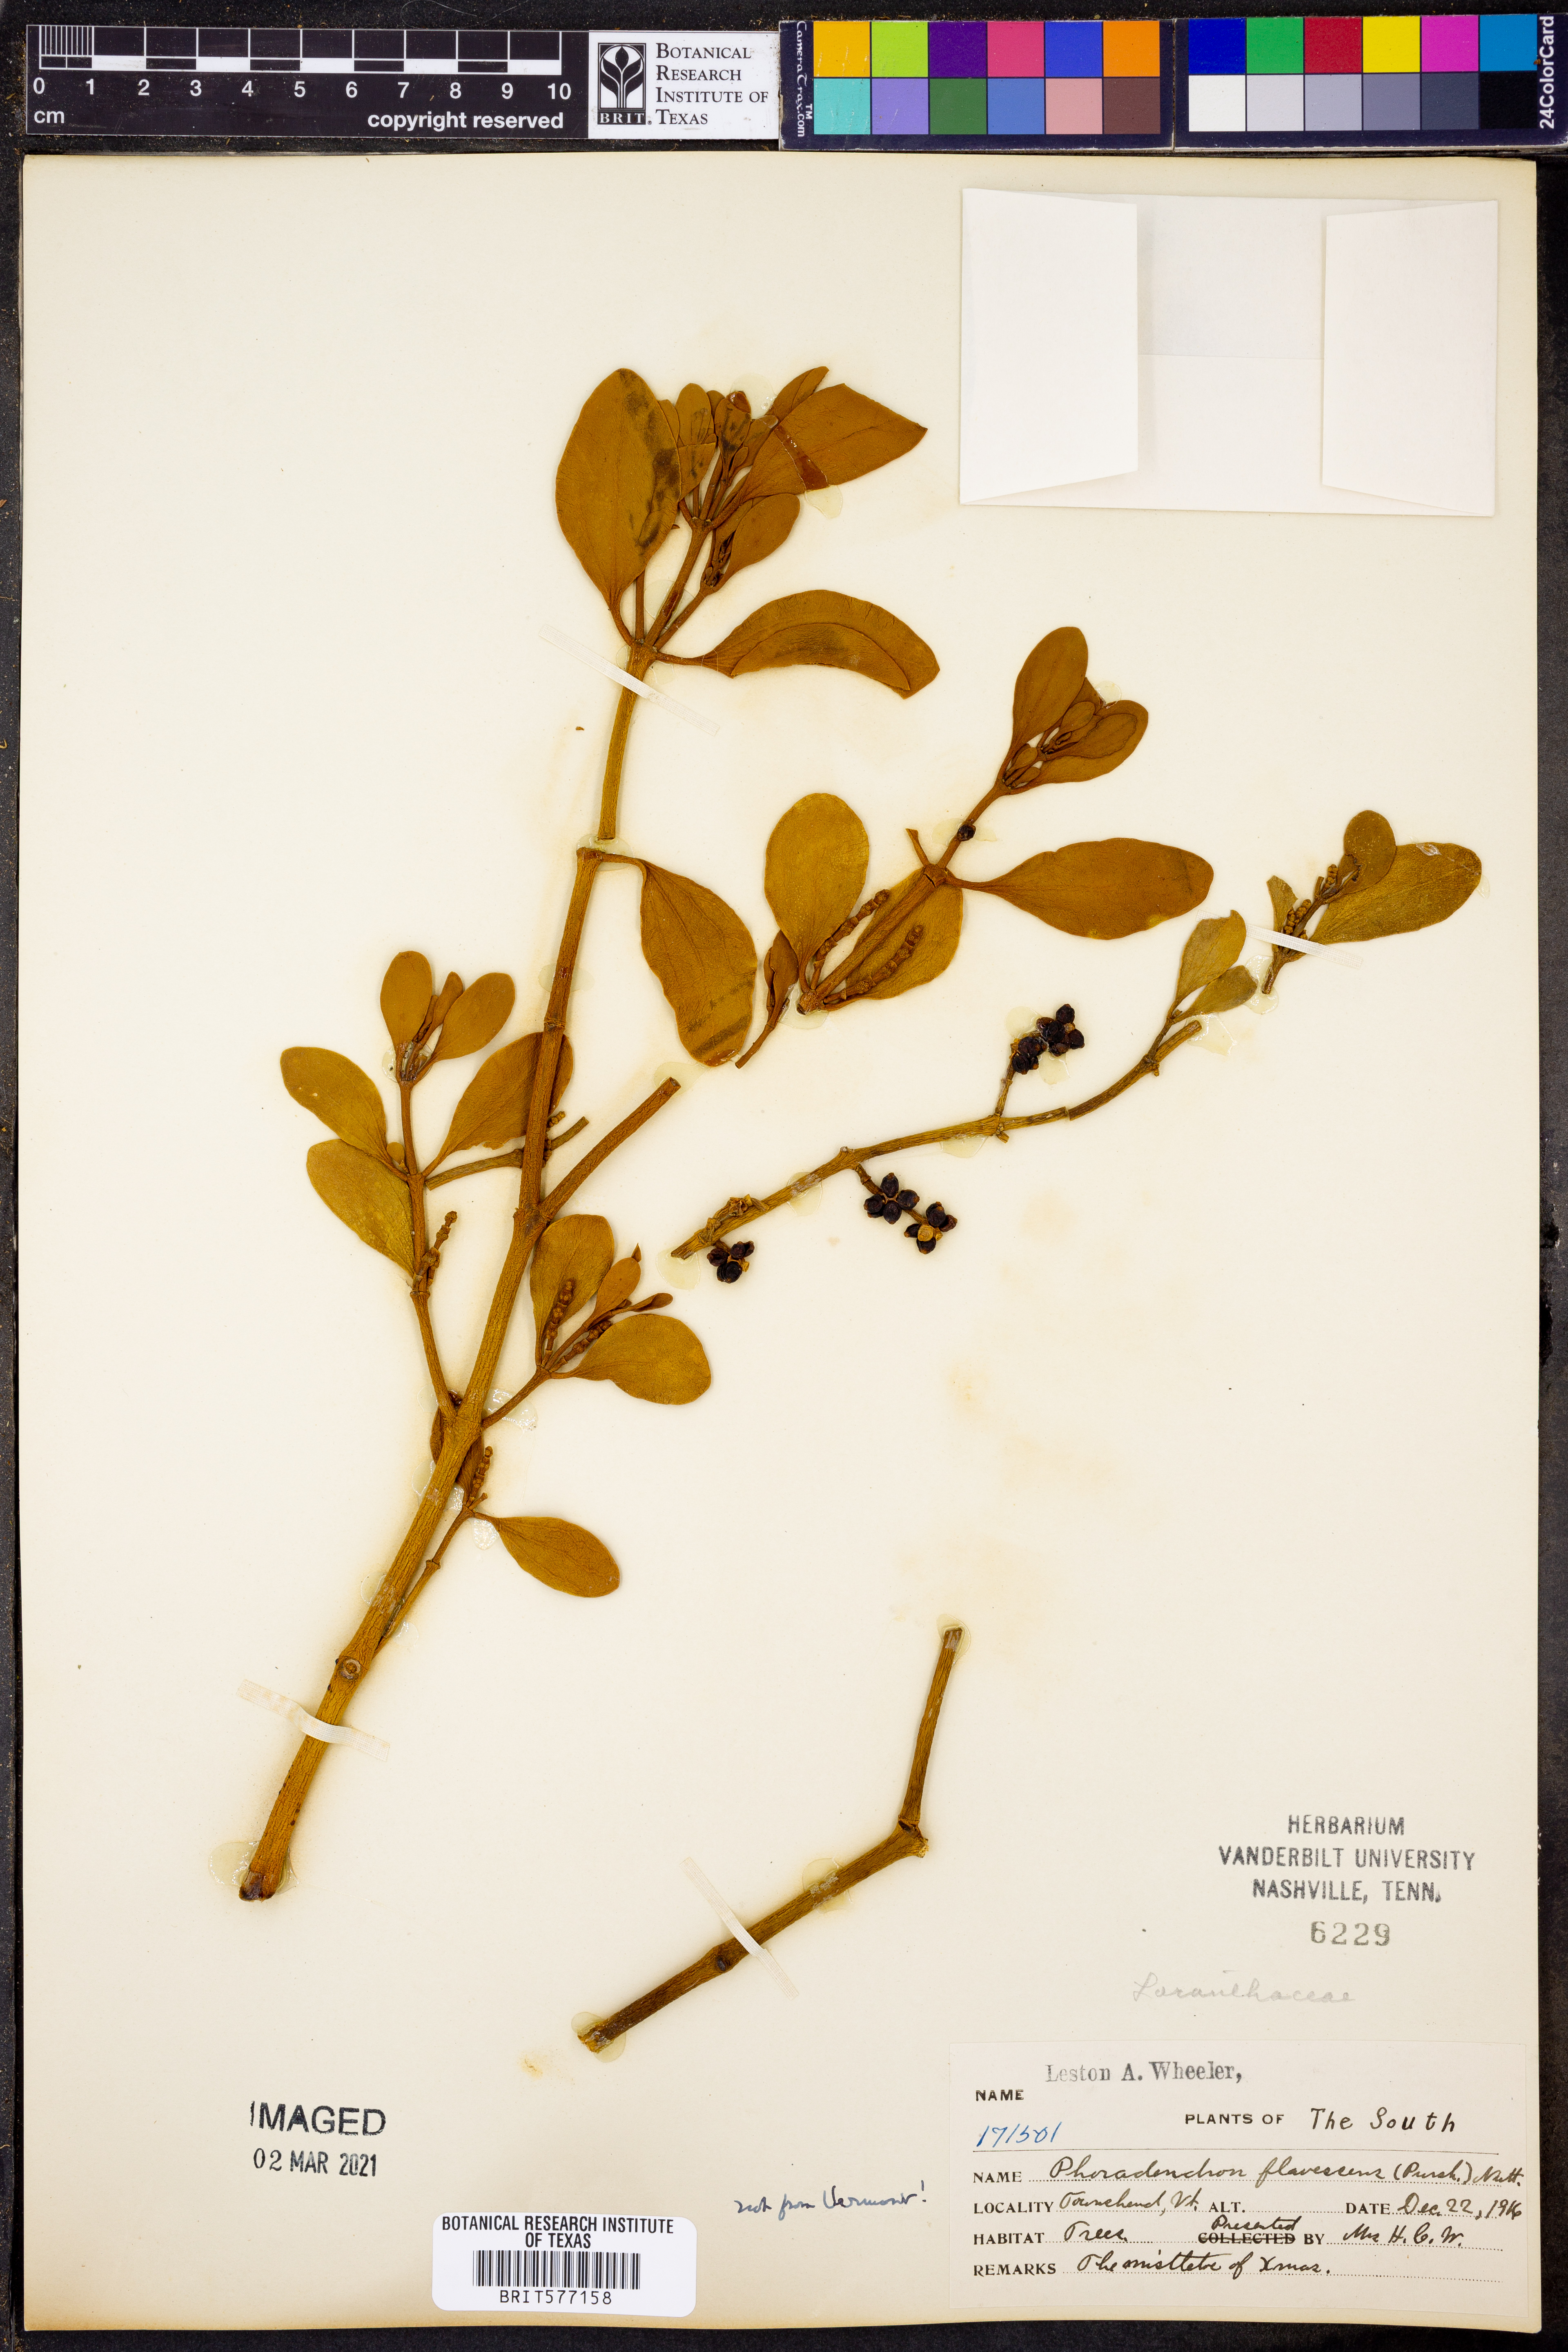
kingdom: Plantae
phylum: Tracheophyta
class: Magnoliopsida
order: Santalales
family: Viscaceae
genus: Phoradendron
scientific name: Phoradendron leucarpum
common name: Pacific mistletoe
